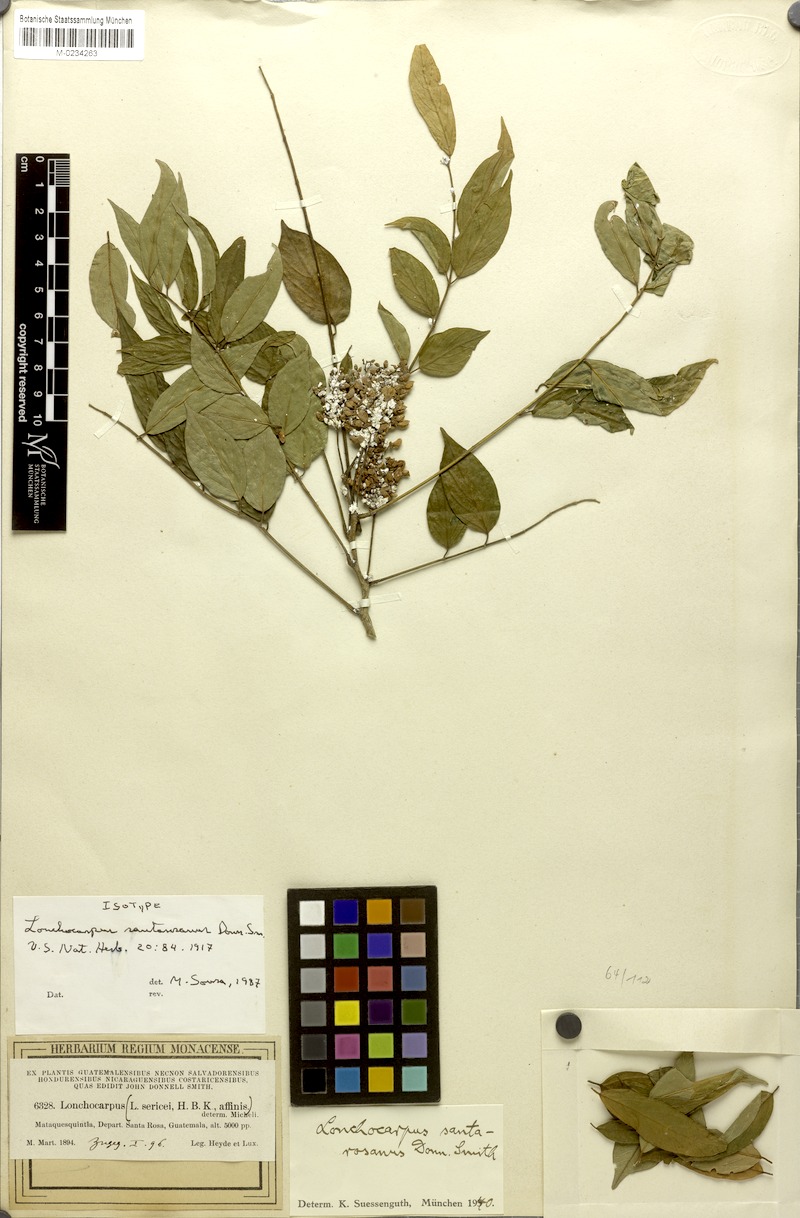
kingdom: Plantae
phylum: Tracheophyta
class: Magnoliopsida
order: Fabales
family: Fabaceae
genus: Lonchocarpus
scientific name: Lonchocarpus santarosanus
